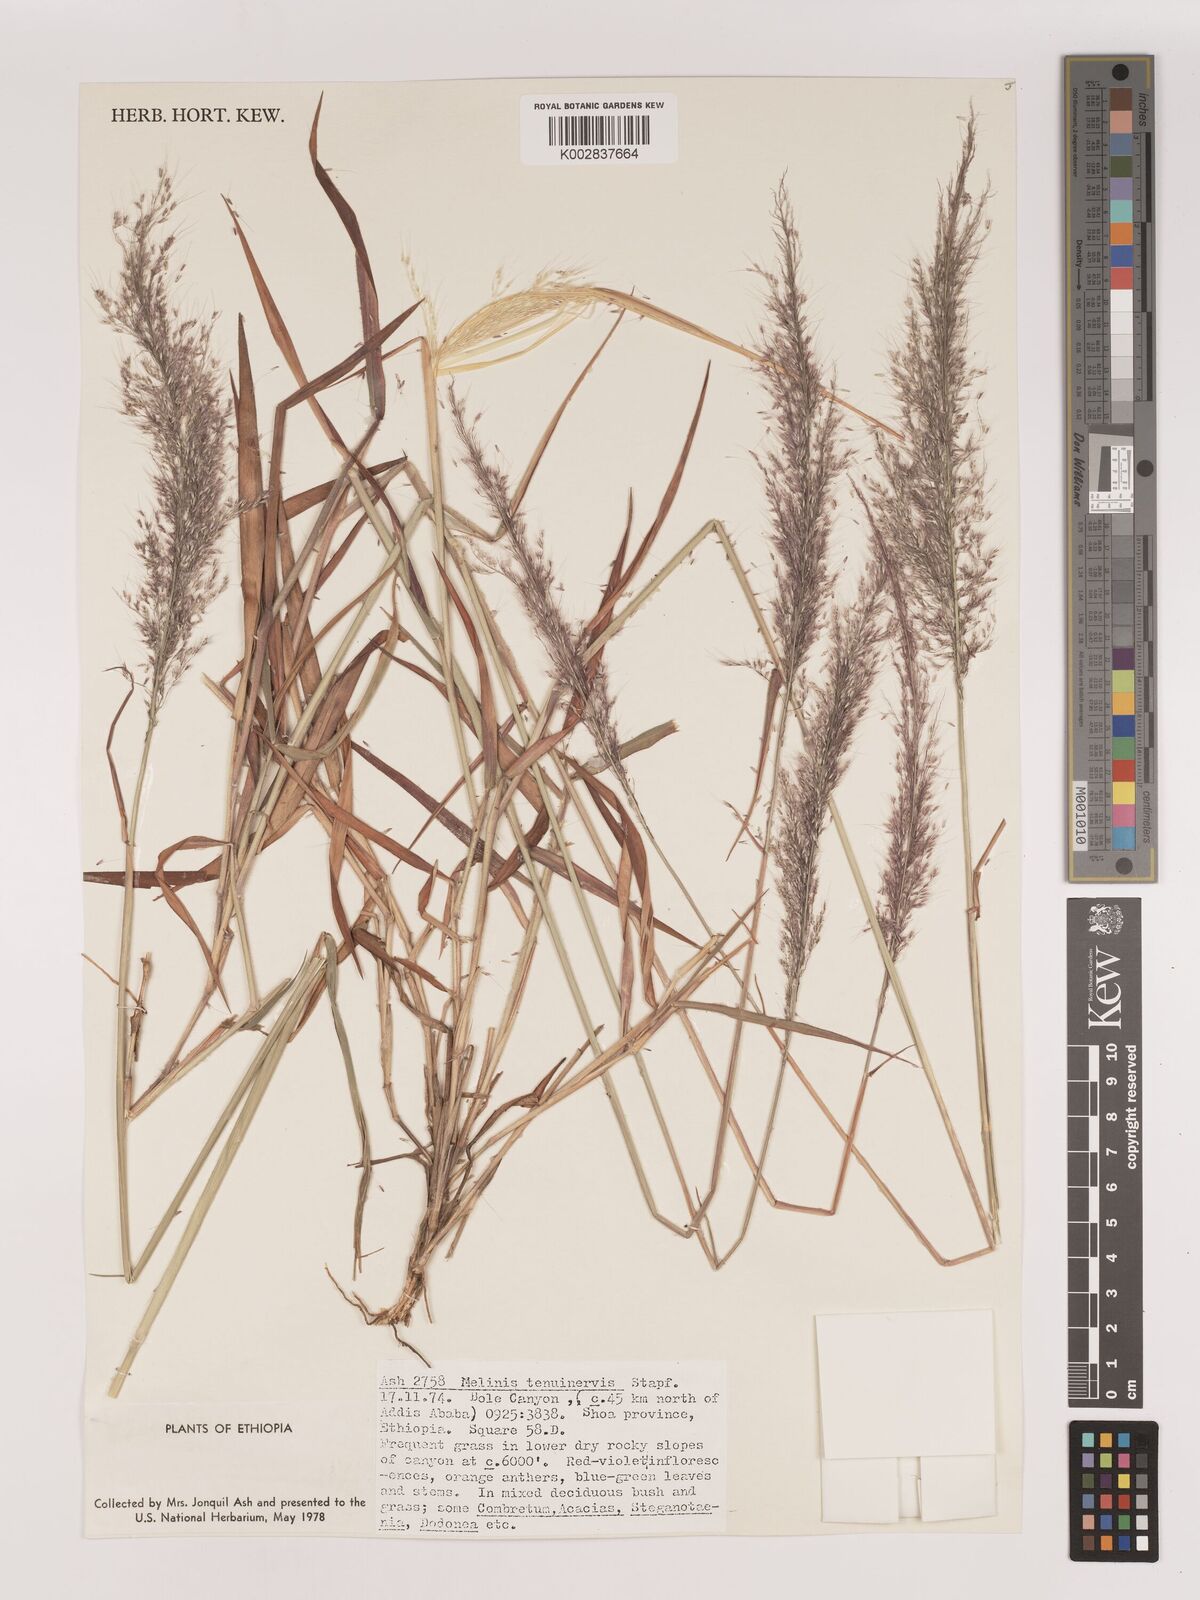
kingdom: Plantae
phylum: Tracheophyta
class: Liliopsida
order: Poales
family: Poaceae
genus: Melinis
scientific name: Melinis minutiflora
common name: Molassesgrass
